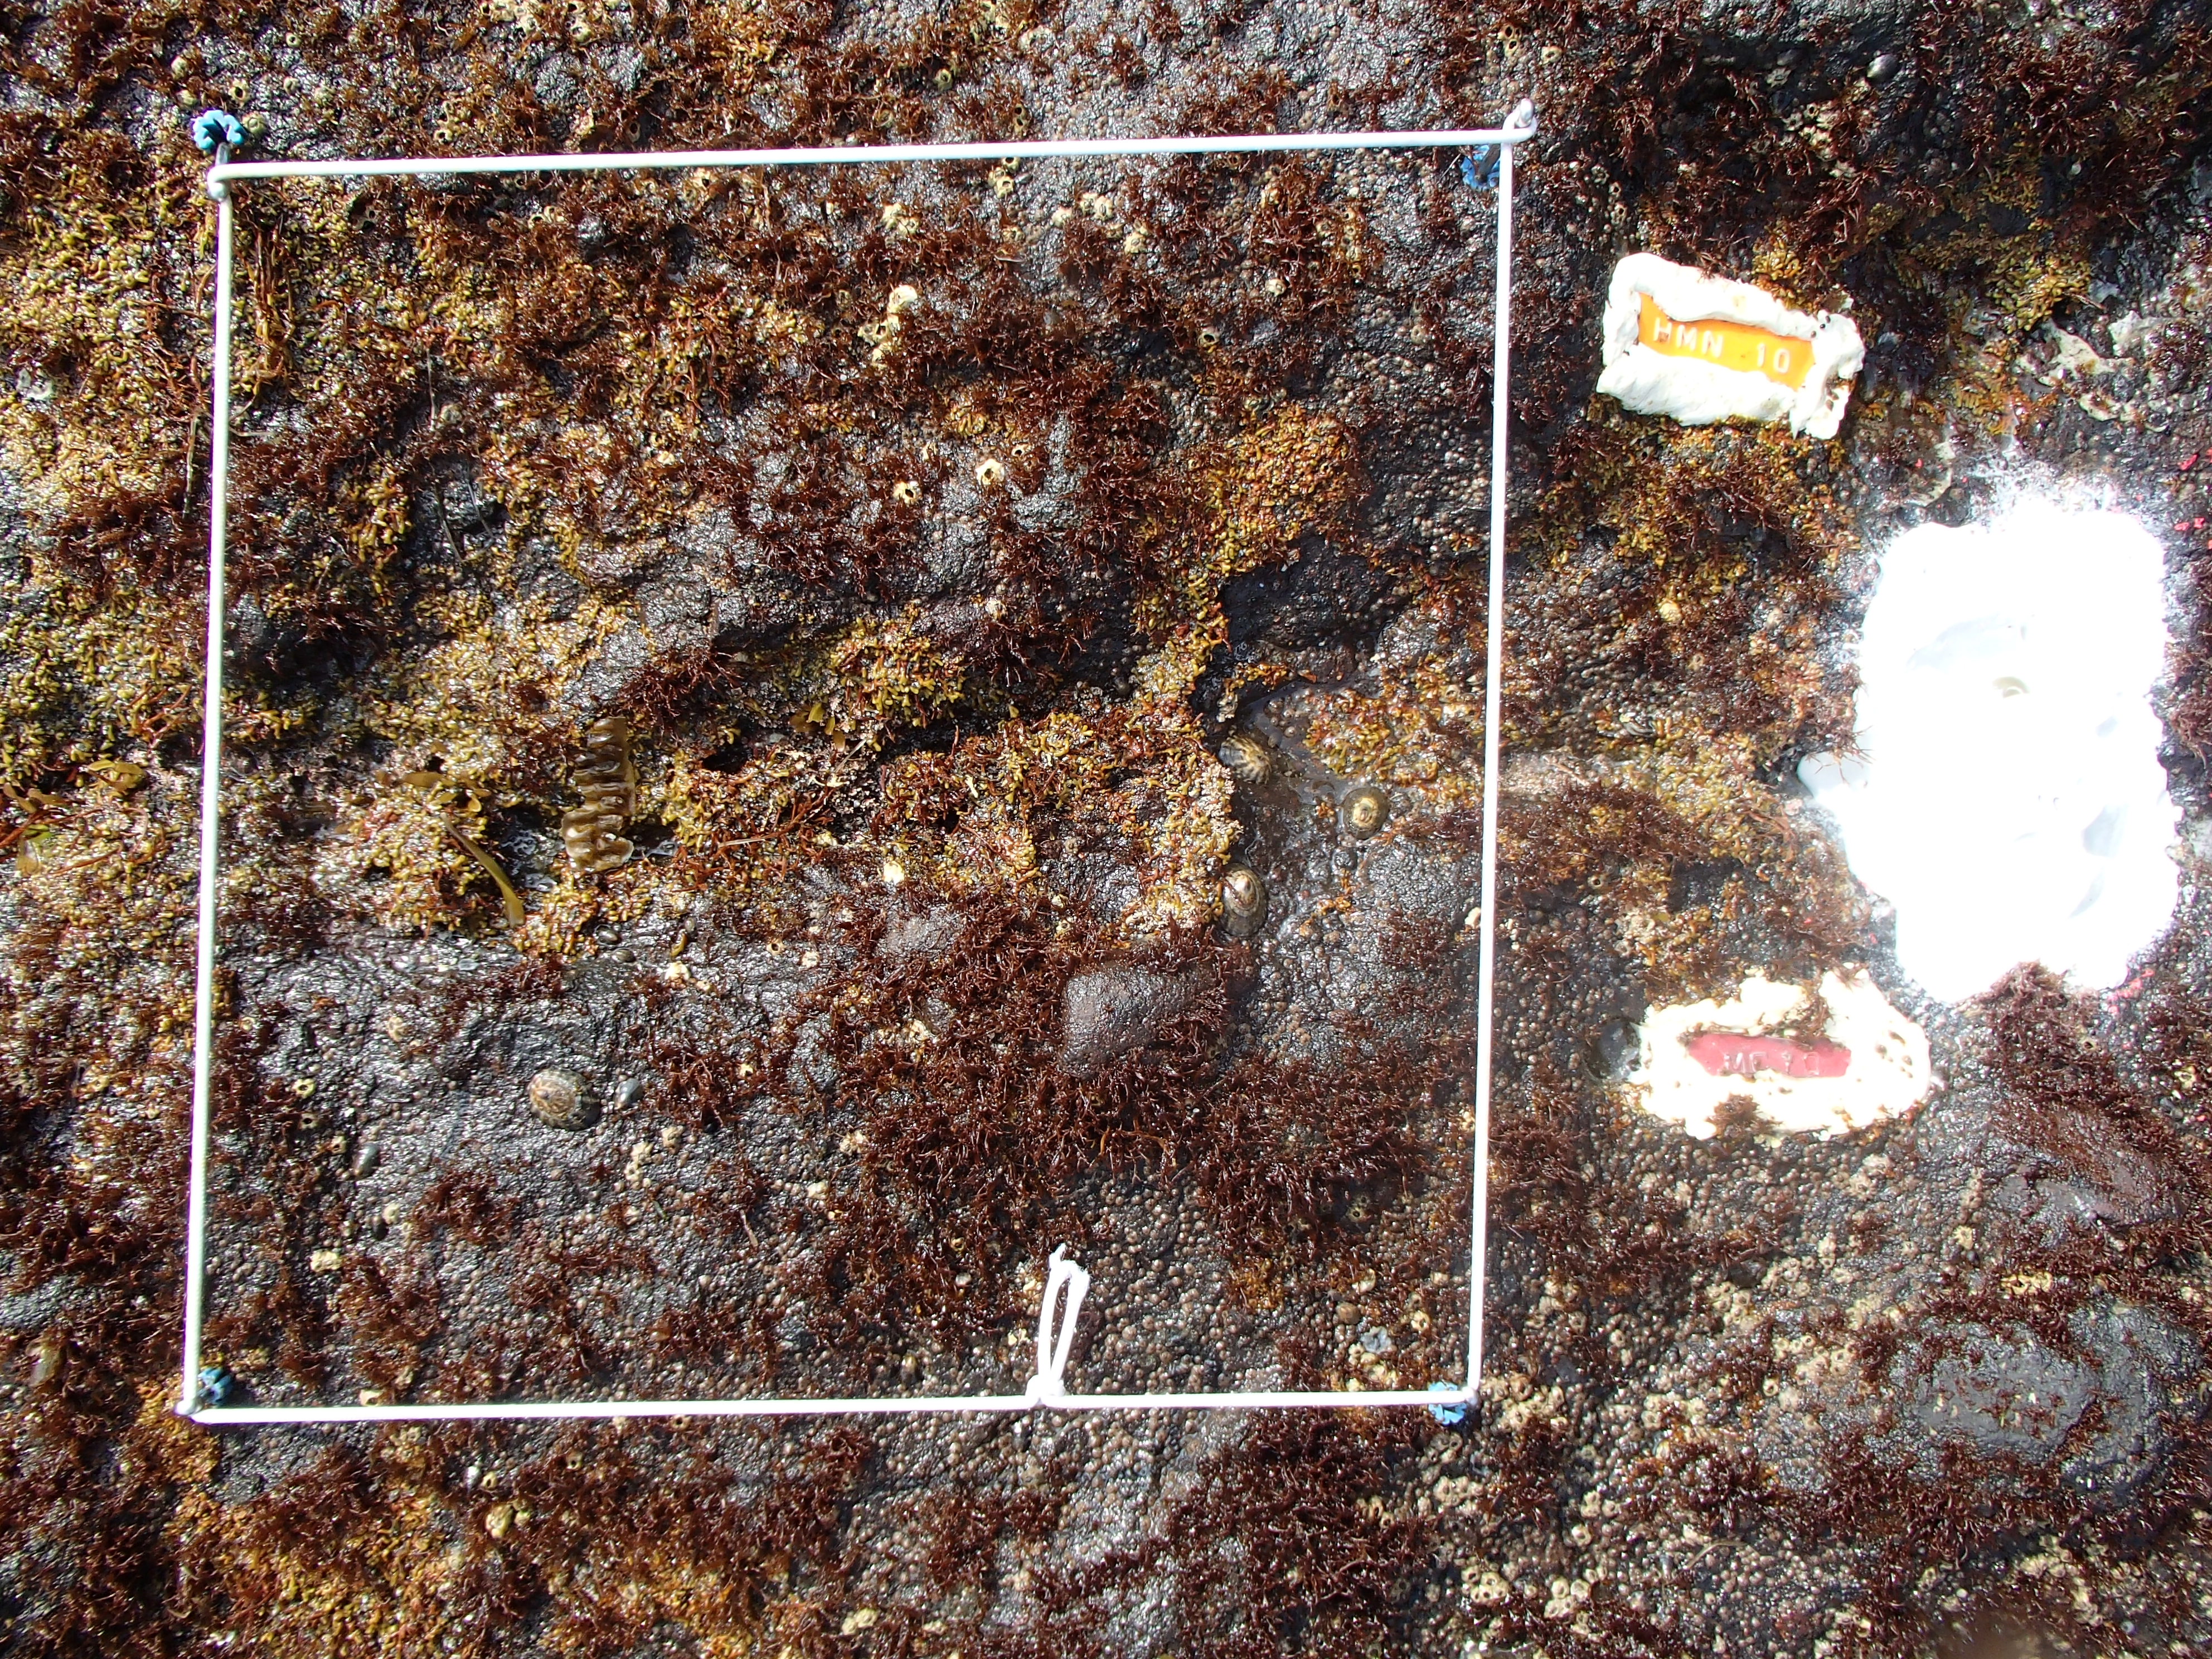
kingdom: Plantae
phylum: Rhodophyta
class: Florideophyceae
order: Gigartinales
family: Endocladiaceae
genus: Gloiopeltis
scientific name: Gloiopeltis furcata
